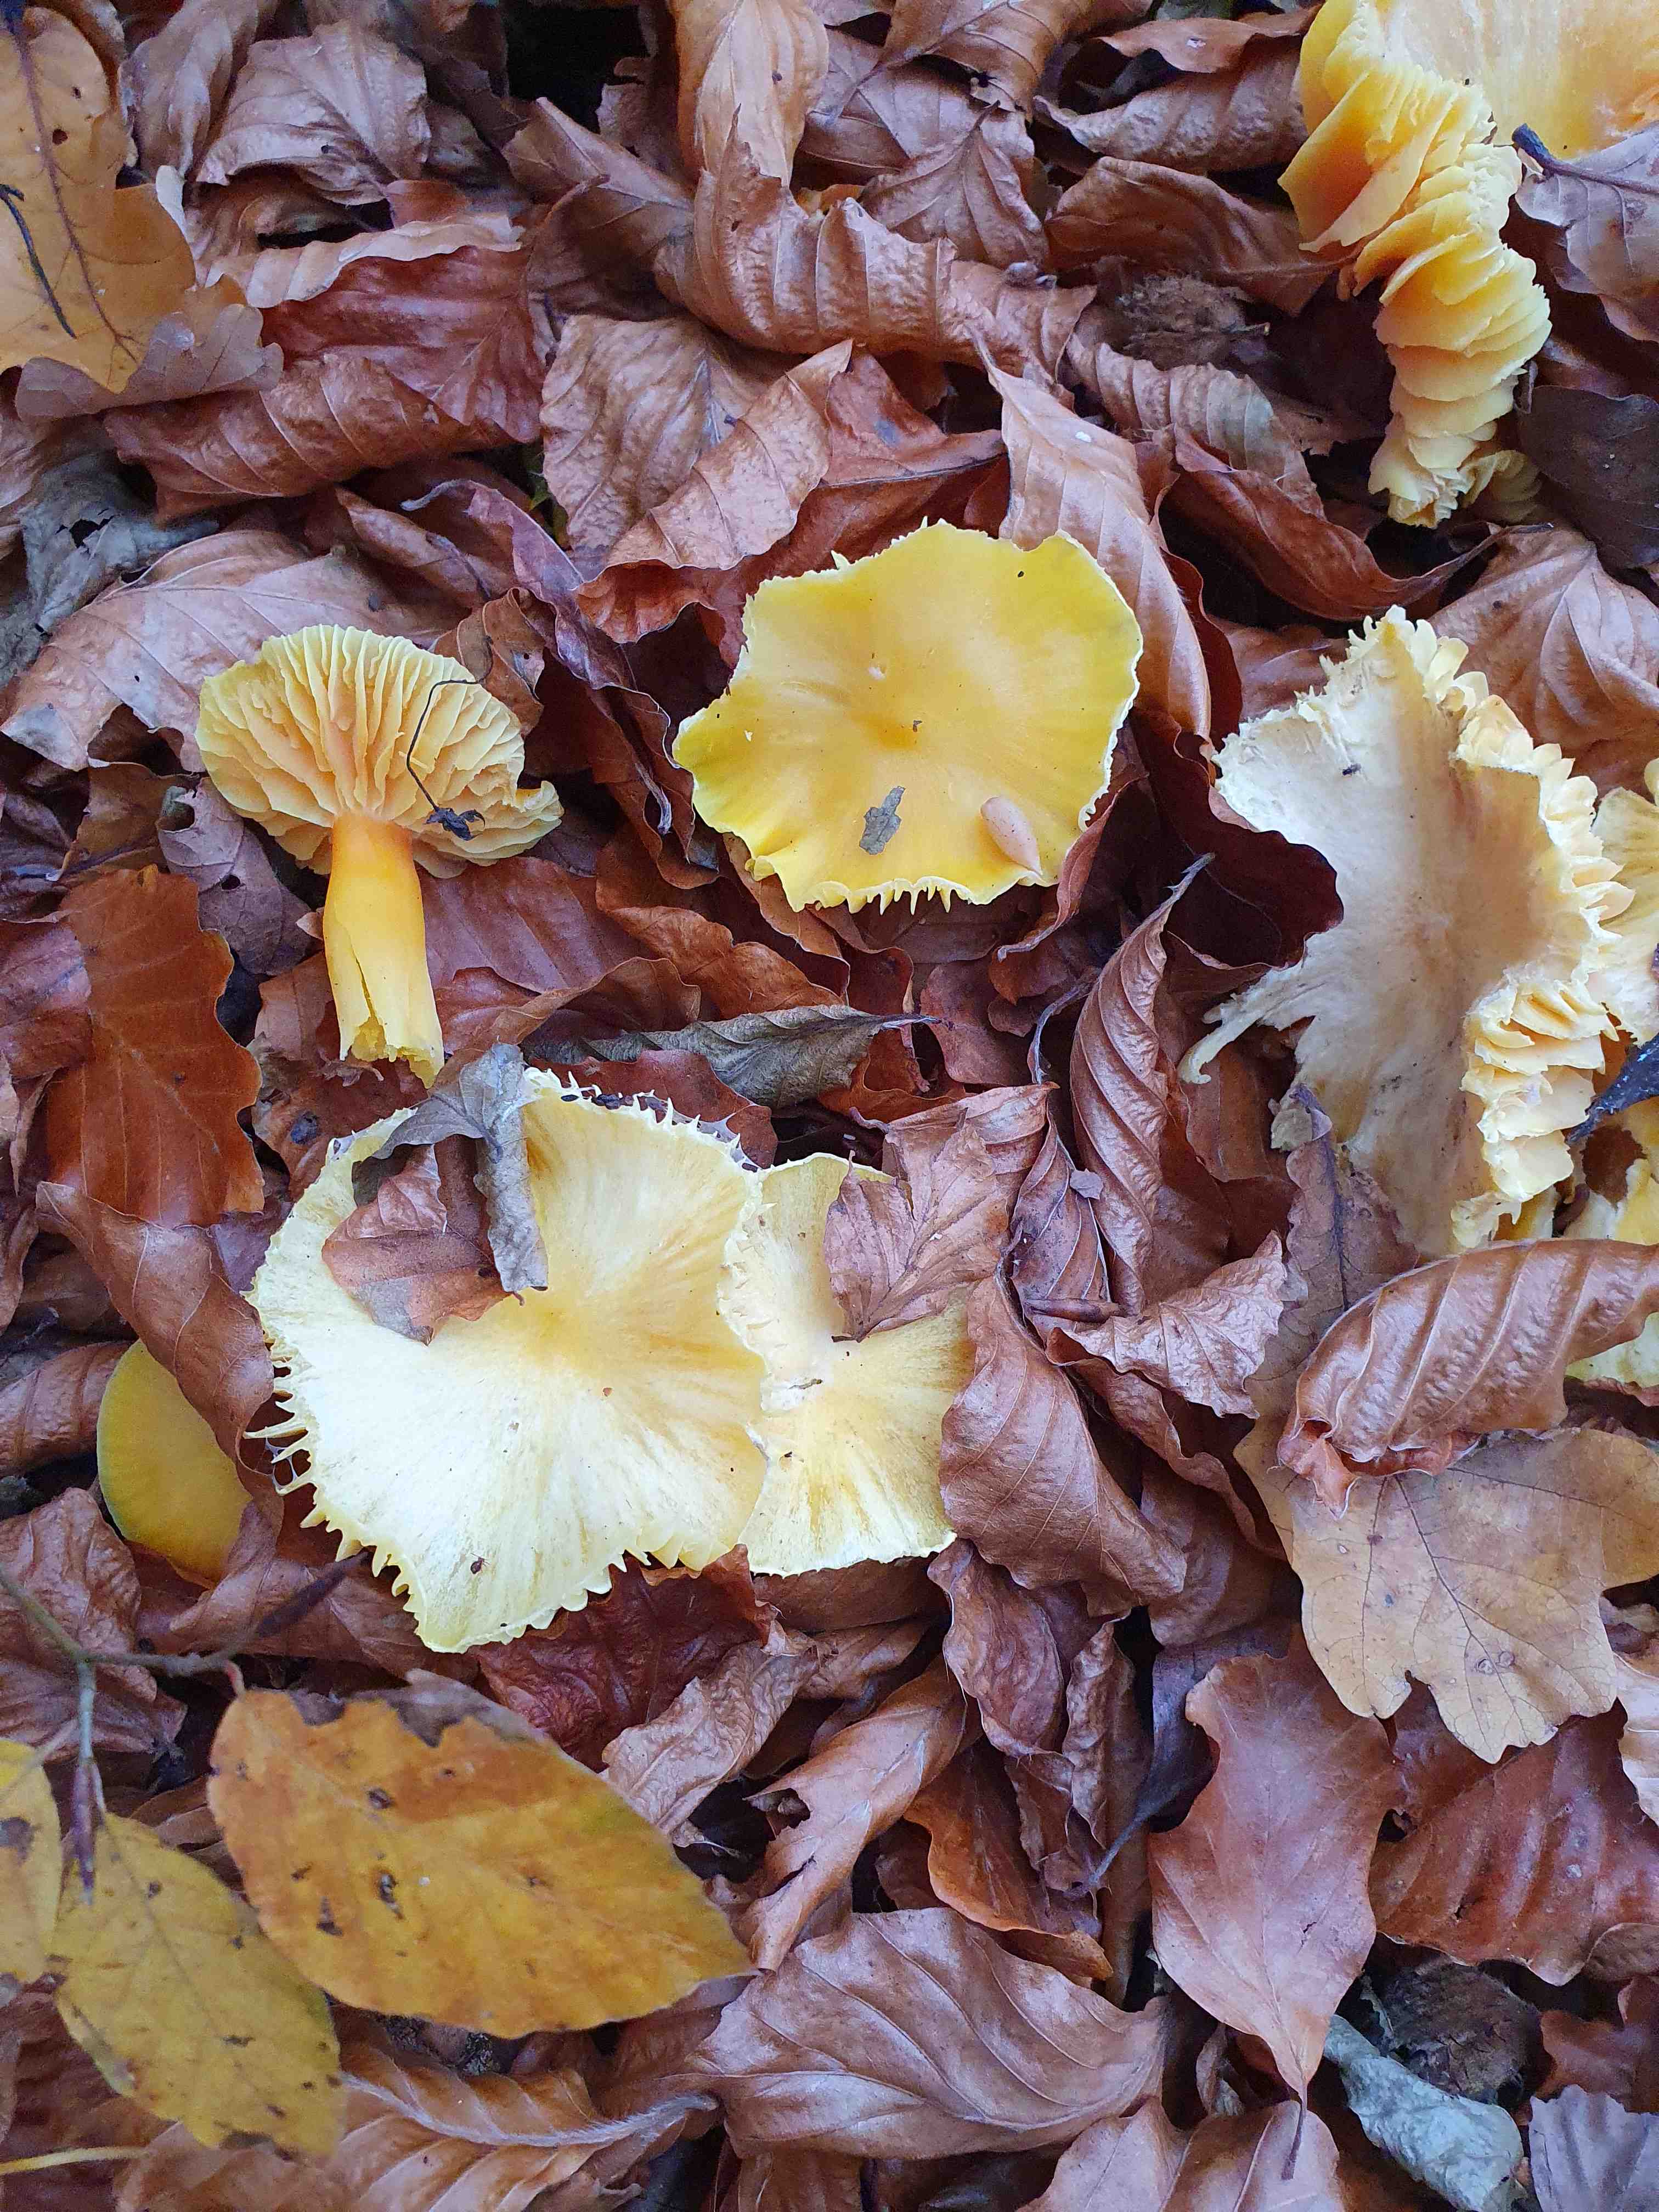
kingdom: Fungi
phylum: Basidiomycota
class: Agaricomycetes
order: Agaricales
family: Hygrophoraceae
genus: Hygrocybe
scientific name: Hygrocybe
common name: vokshat
